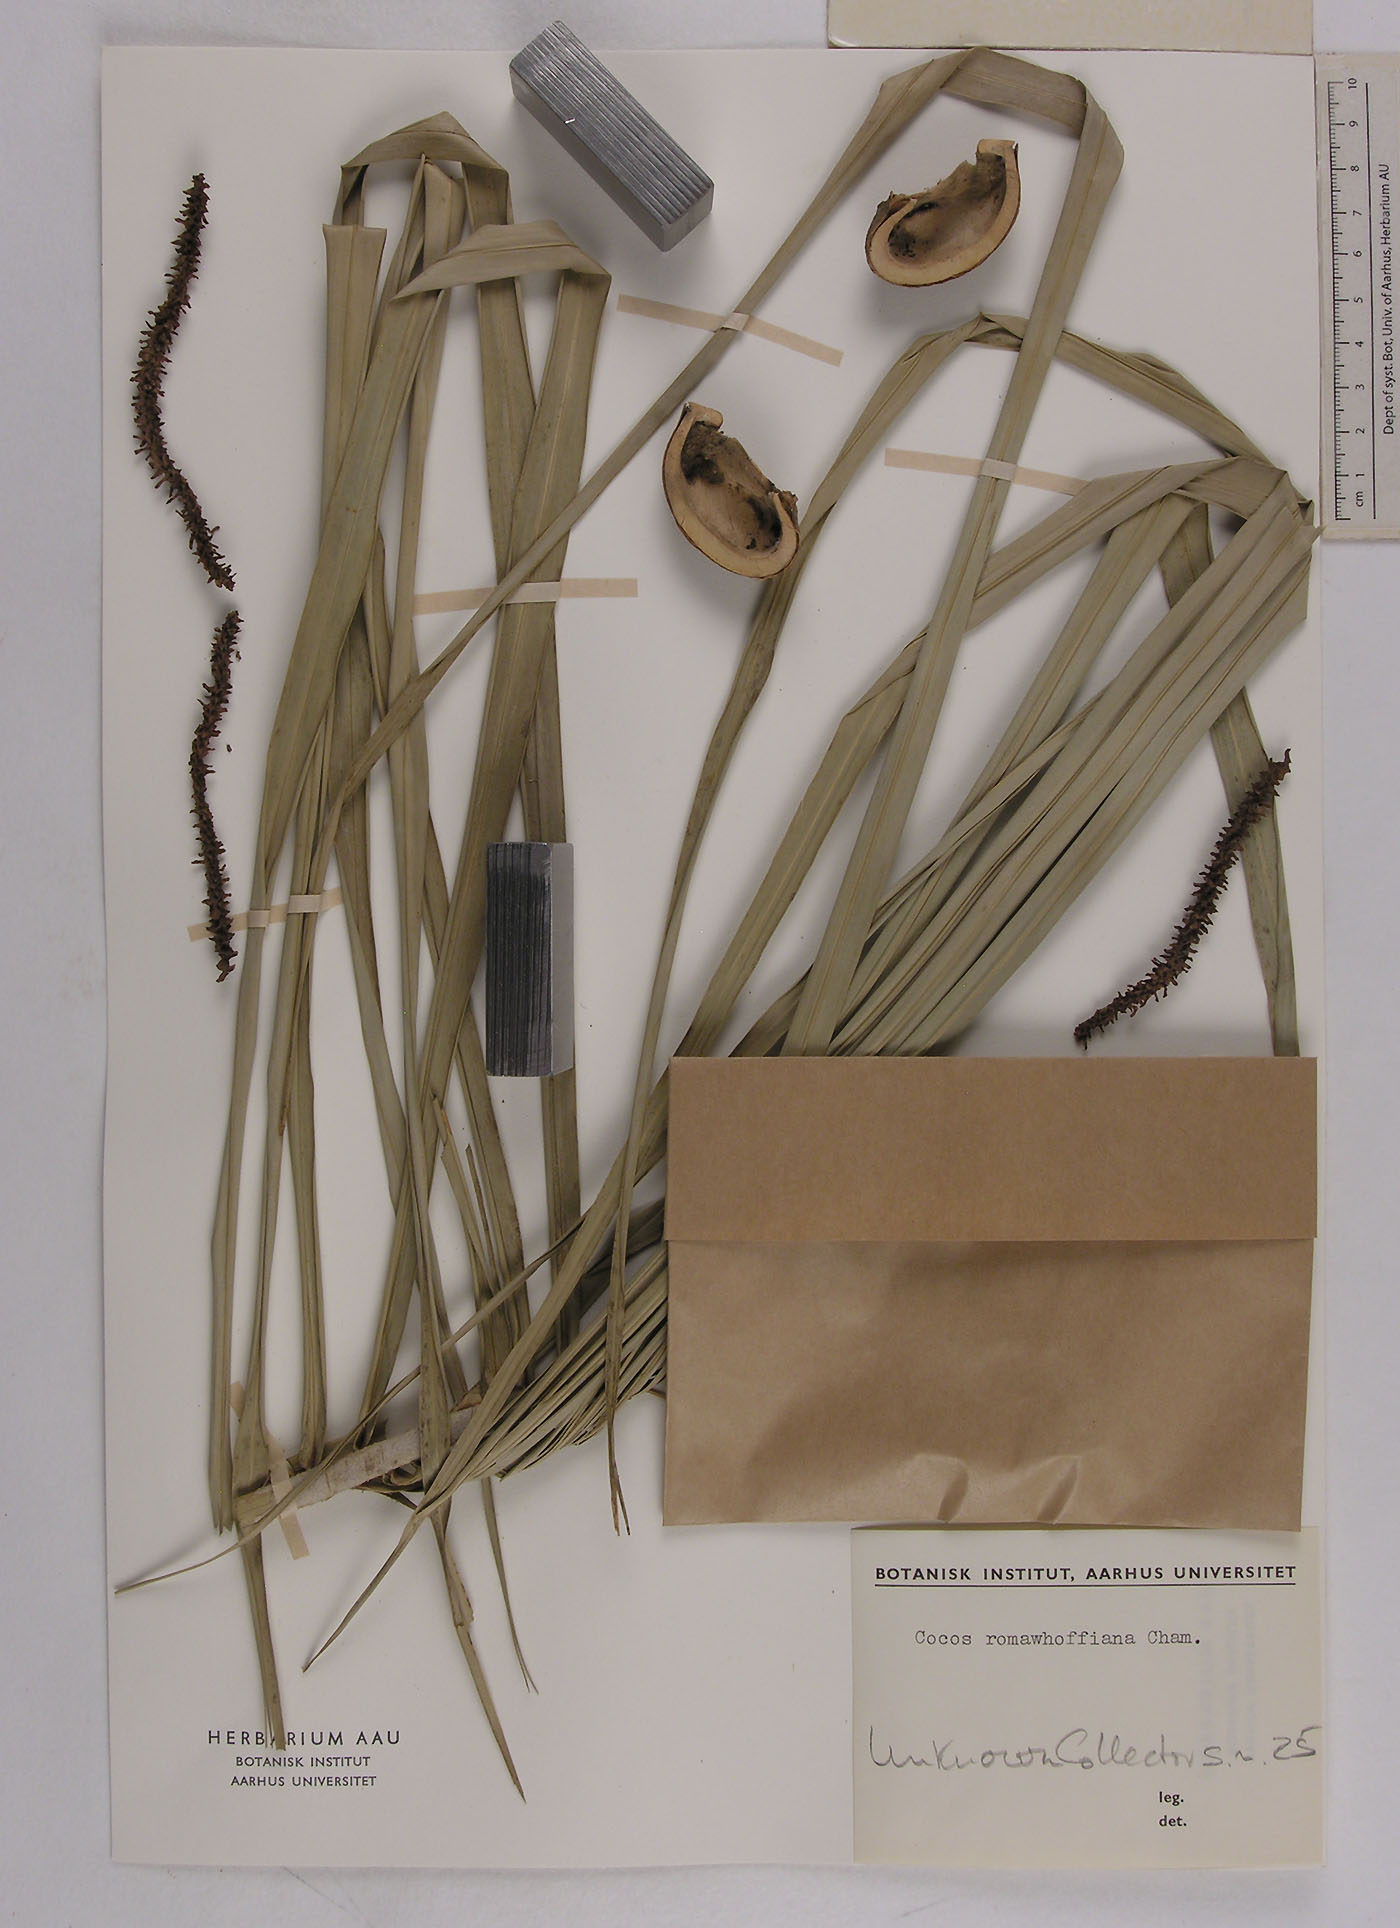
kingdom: Plantae
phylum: Tracheophyta
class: Liliopsida
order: Arecales
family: Arecaceae
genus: Syagrus
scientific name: Syagrus romanzoffiana
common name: Queen palm
